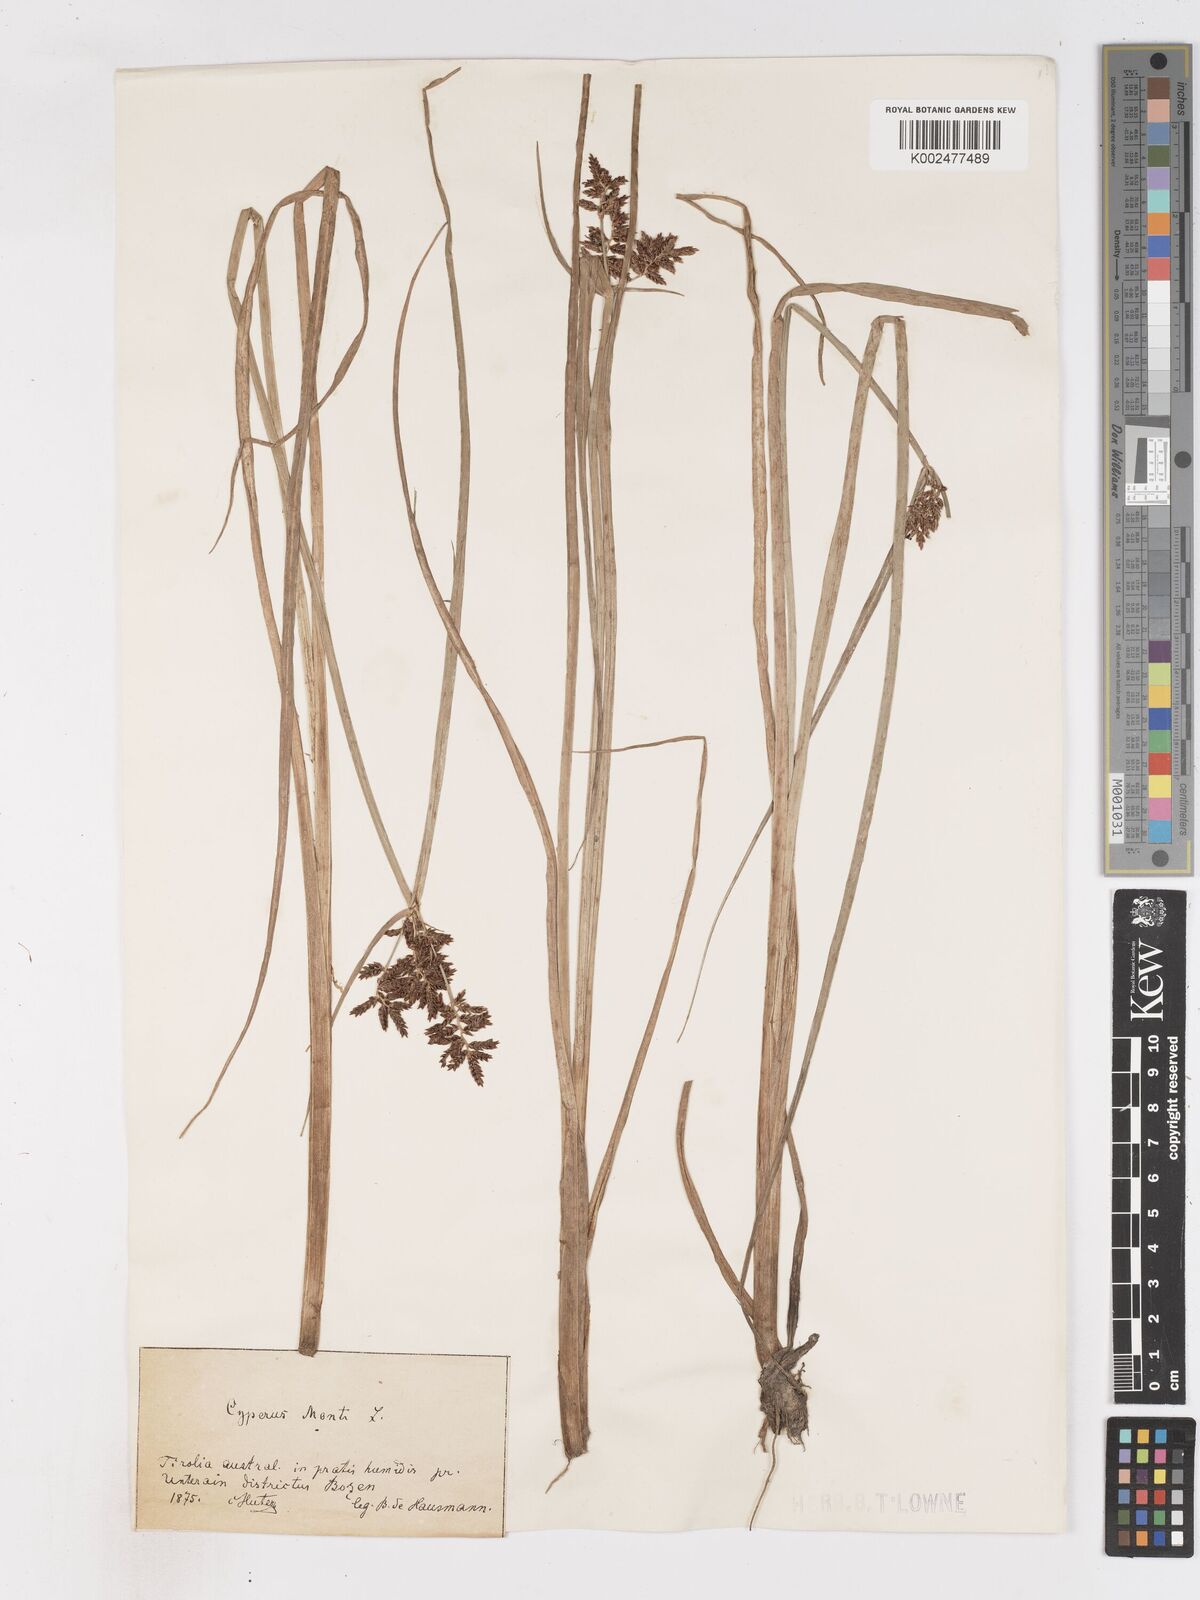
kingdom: Plantae
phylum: Tracheophyta
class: Liliopsida
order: Poales
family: Cyperaceae
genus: Cyperus
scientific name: Cyperus serotinus
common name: Tidalmarsh flatsedge
